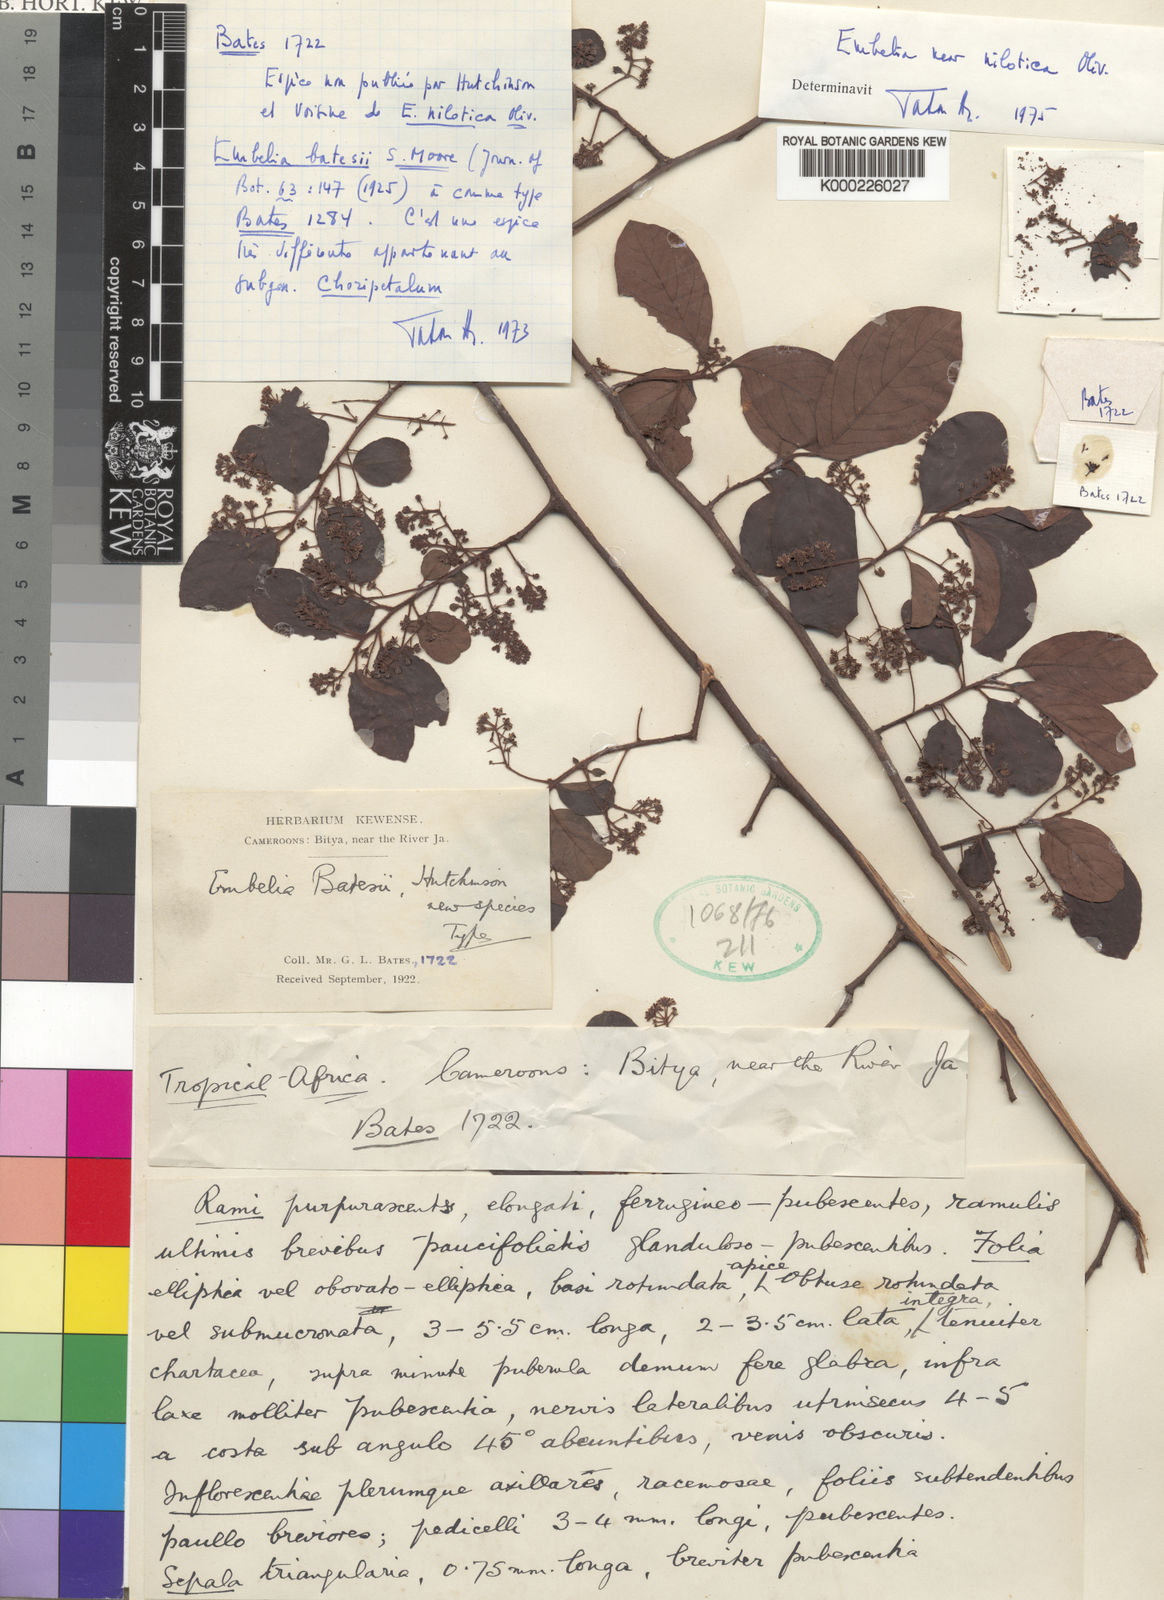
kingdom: Plantae
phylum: Tracheophyta
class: Magnoliopsida
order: Ericales
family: Primulaceae
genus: Embelia
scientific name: Embelia schimperi
